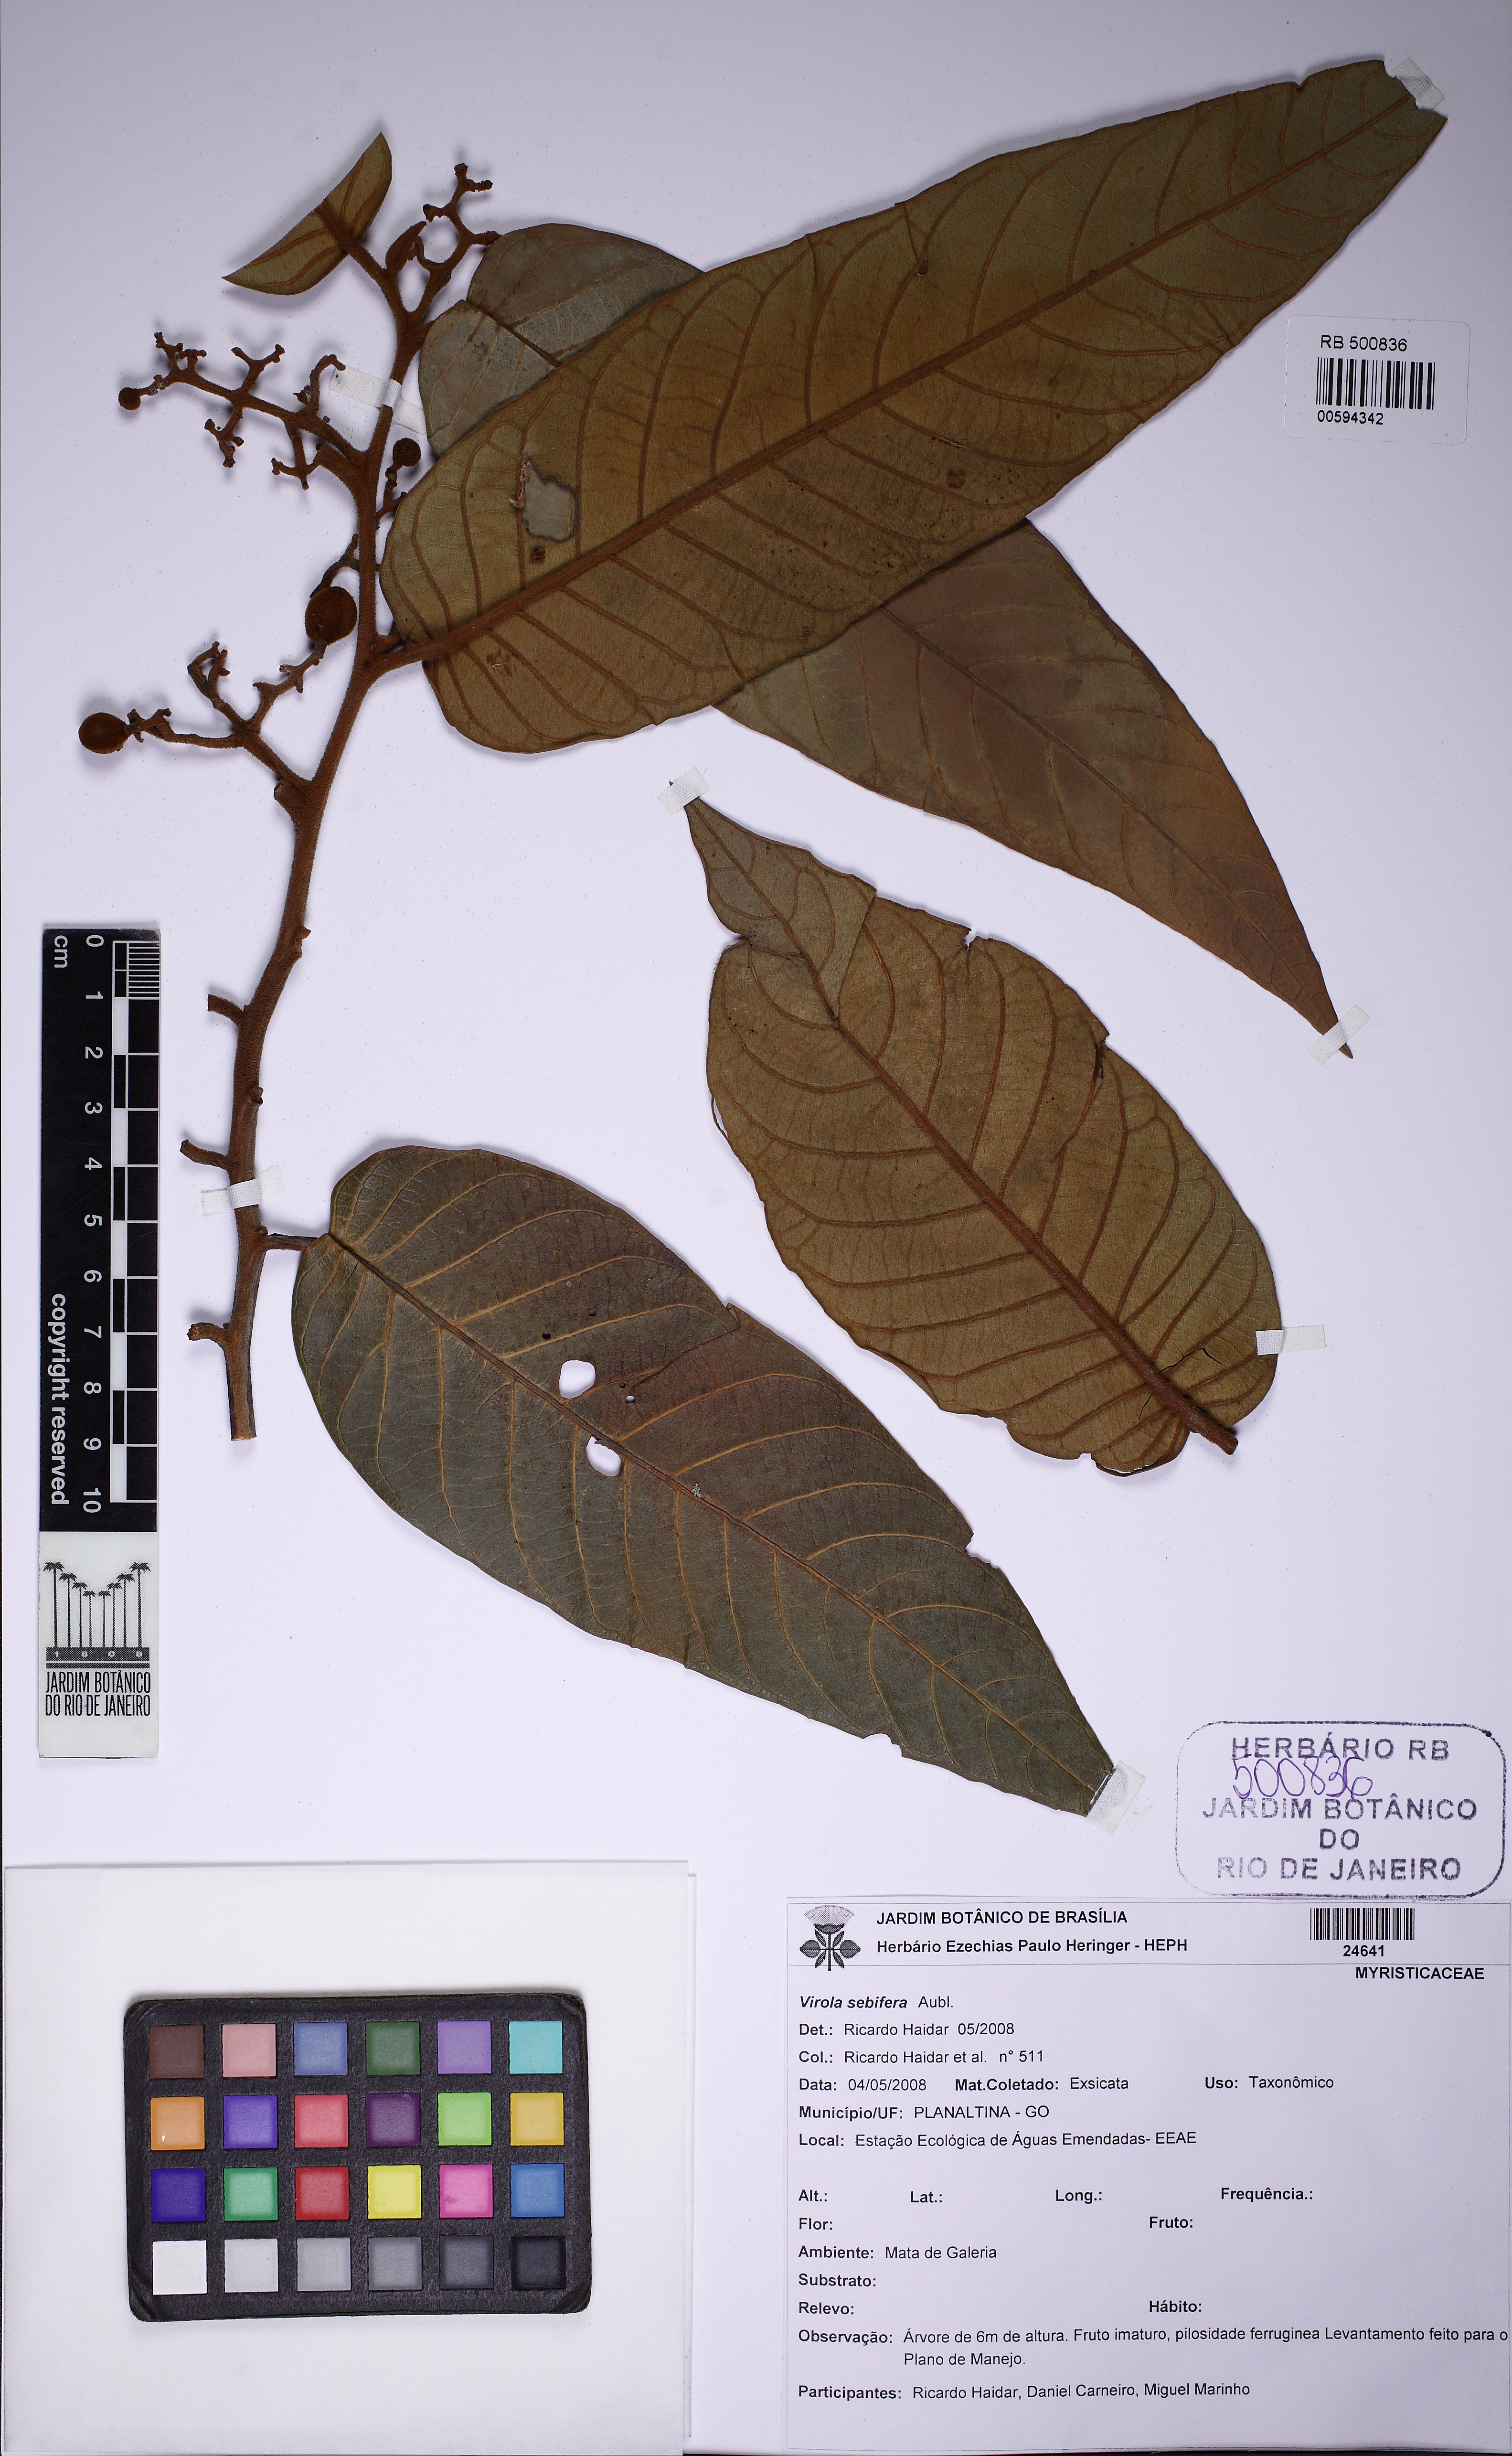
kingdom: Plantae
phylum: Tracheophyta
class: Magnoliopsida
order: Magnoliales
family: Myristicaceae
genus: Virola
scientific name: Virola sebifera
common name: Red ucuuba
